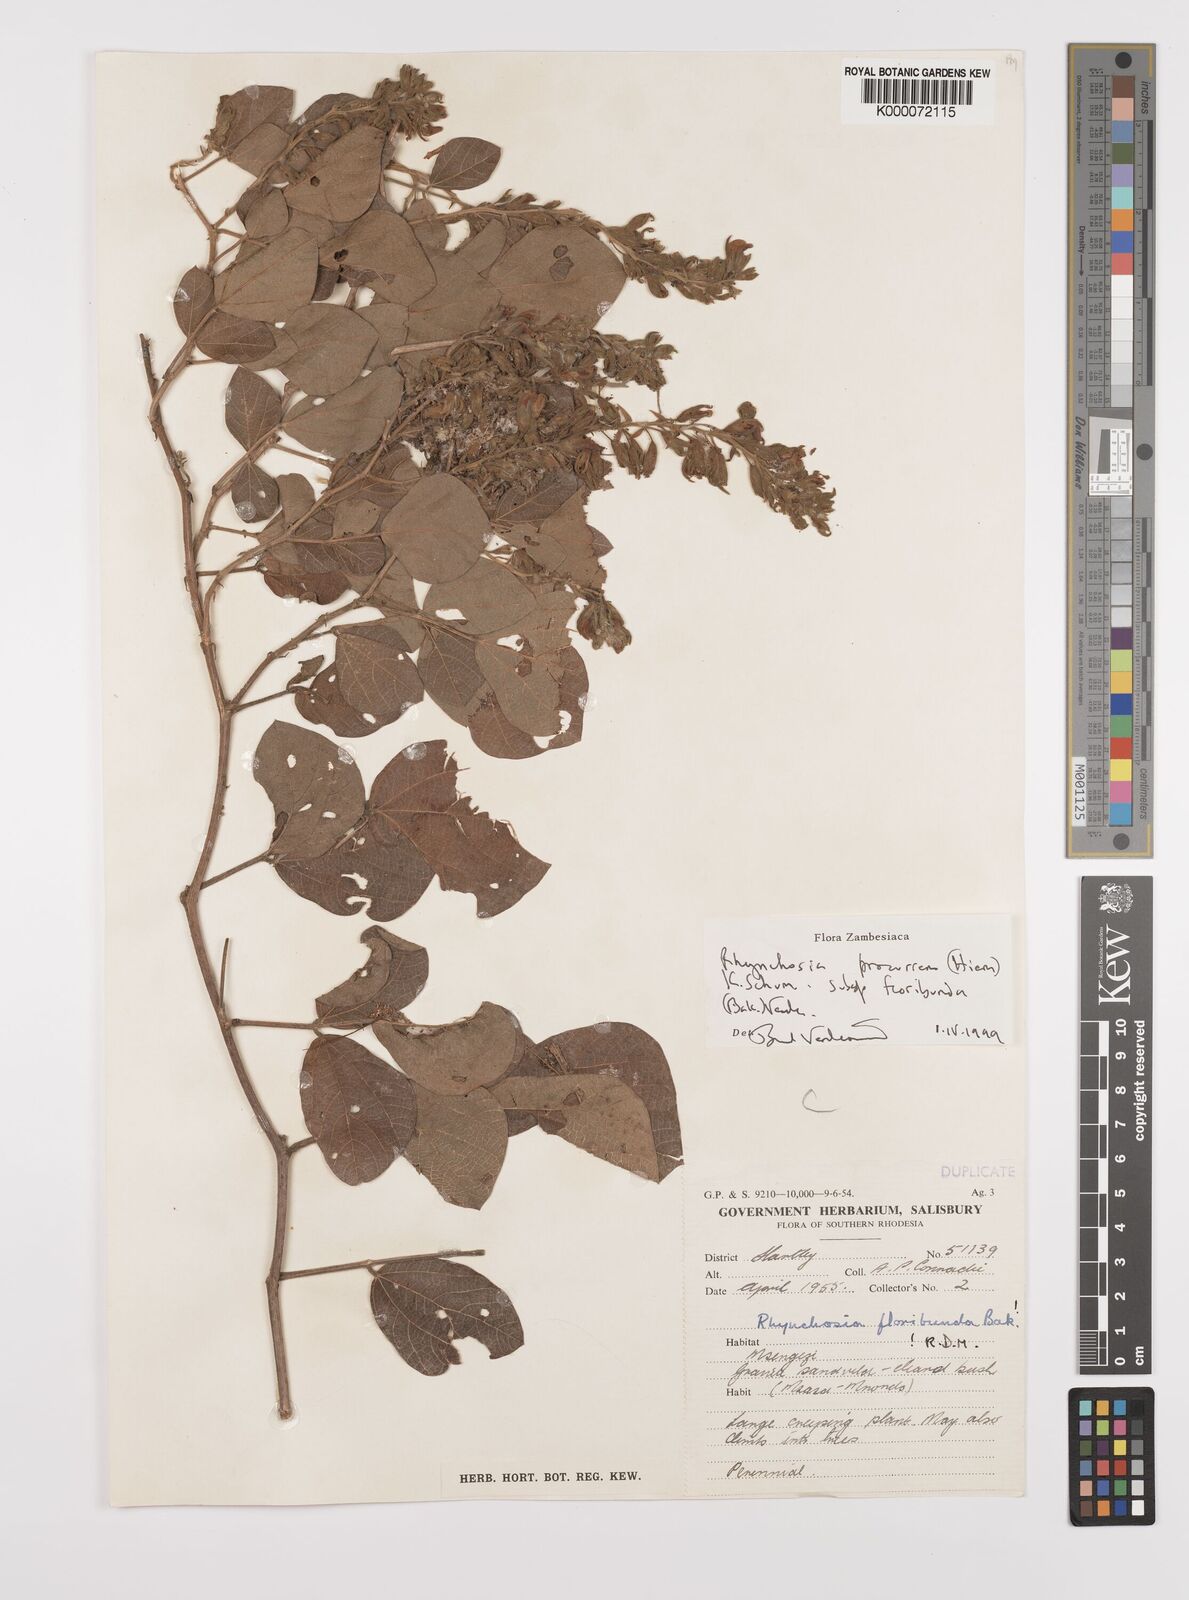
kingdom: Plantae
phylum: Tracheophyta
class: Magnoliopsida
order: Fabales
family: Fabaceae
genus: Rhynchosia
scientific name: Rhynchosia procurrens
